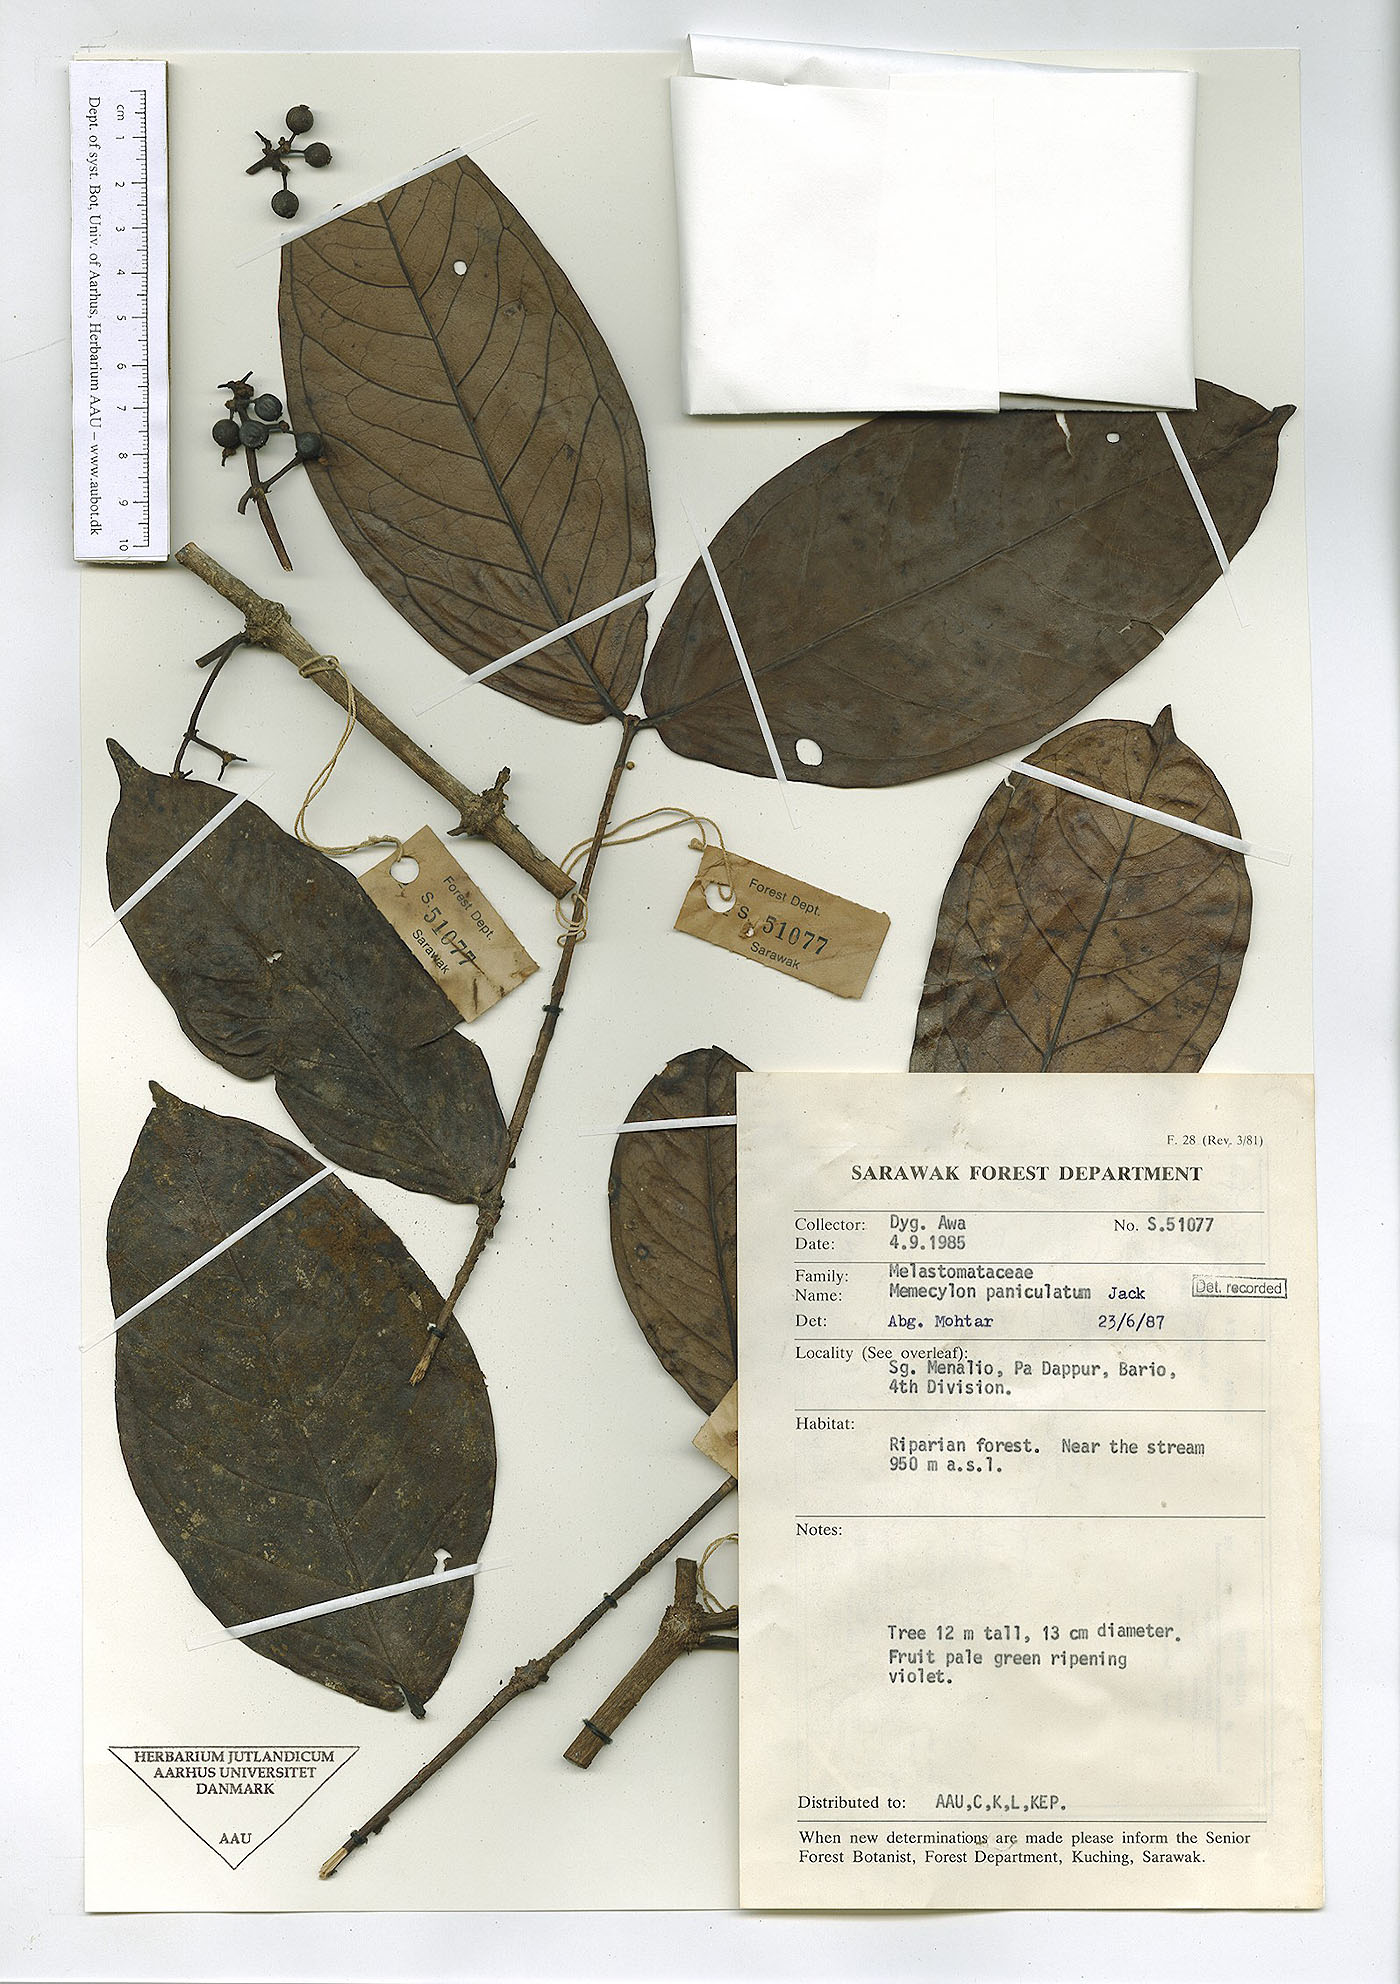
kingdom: Plantae
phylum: Tracheophyta
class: Magnoliopsida
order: Myrtales
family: Melastomataceae
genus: Memecylon
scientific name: Memecylon paniculatum
